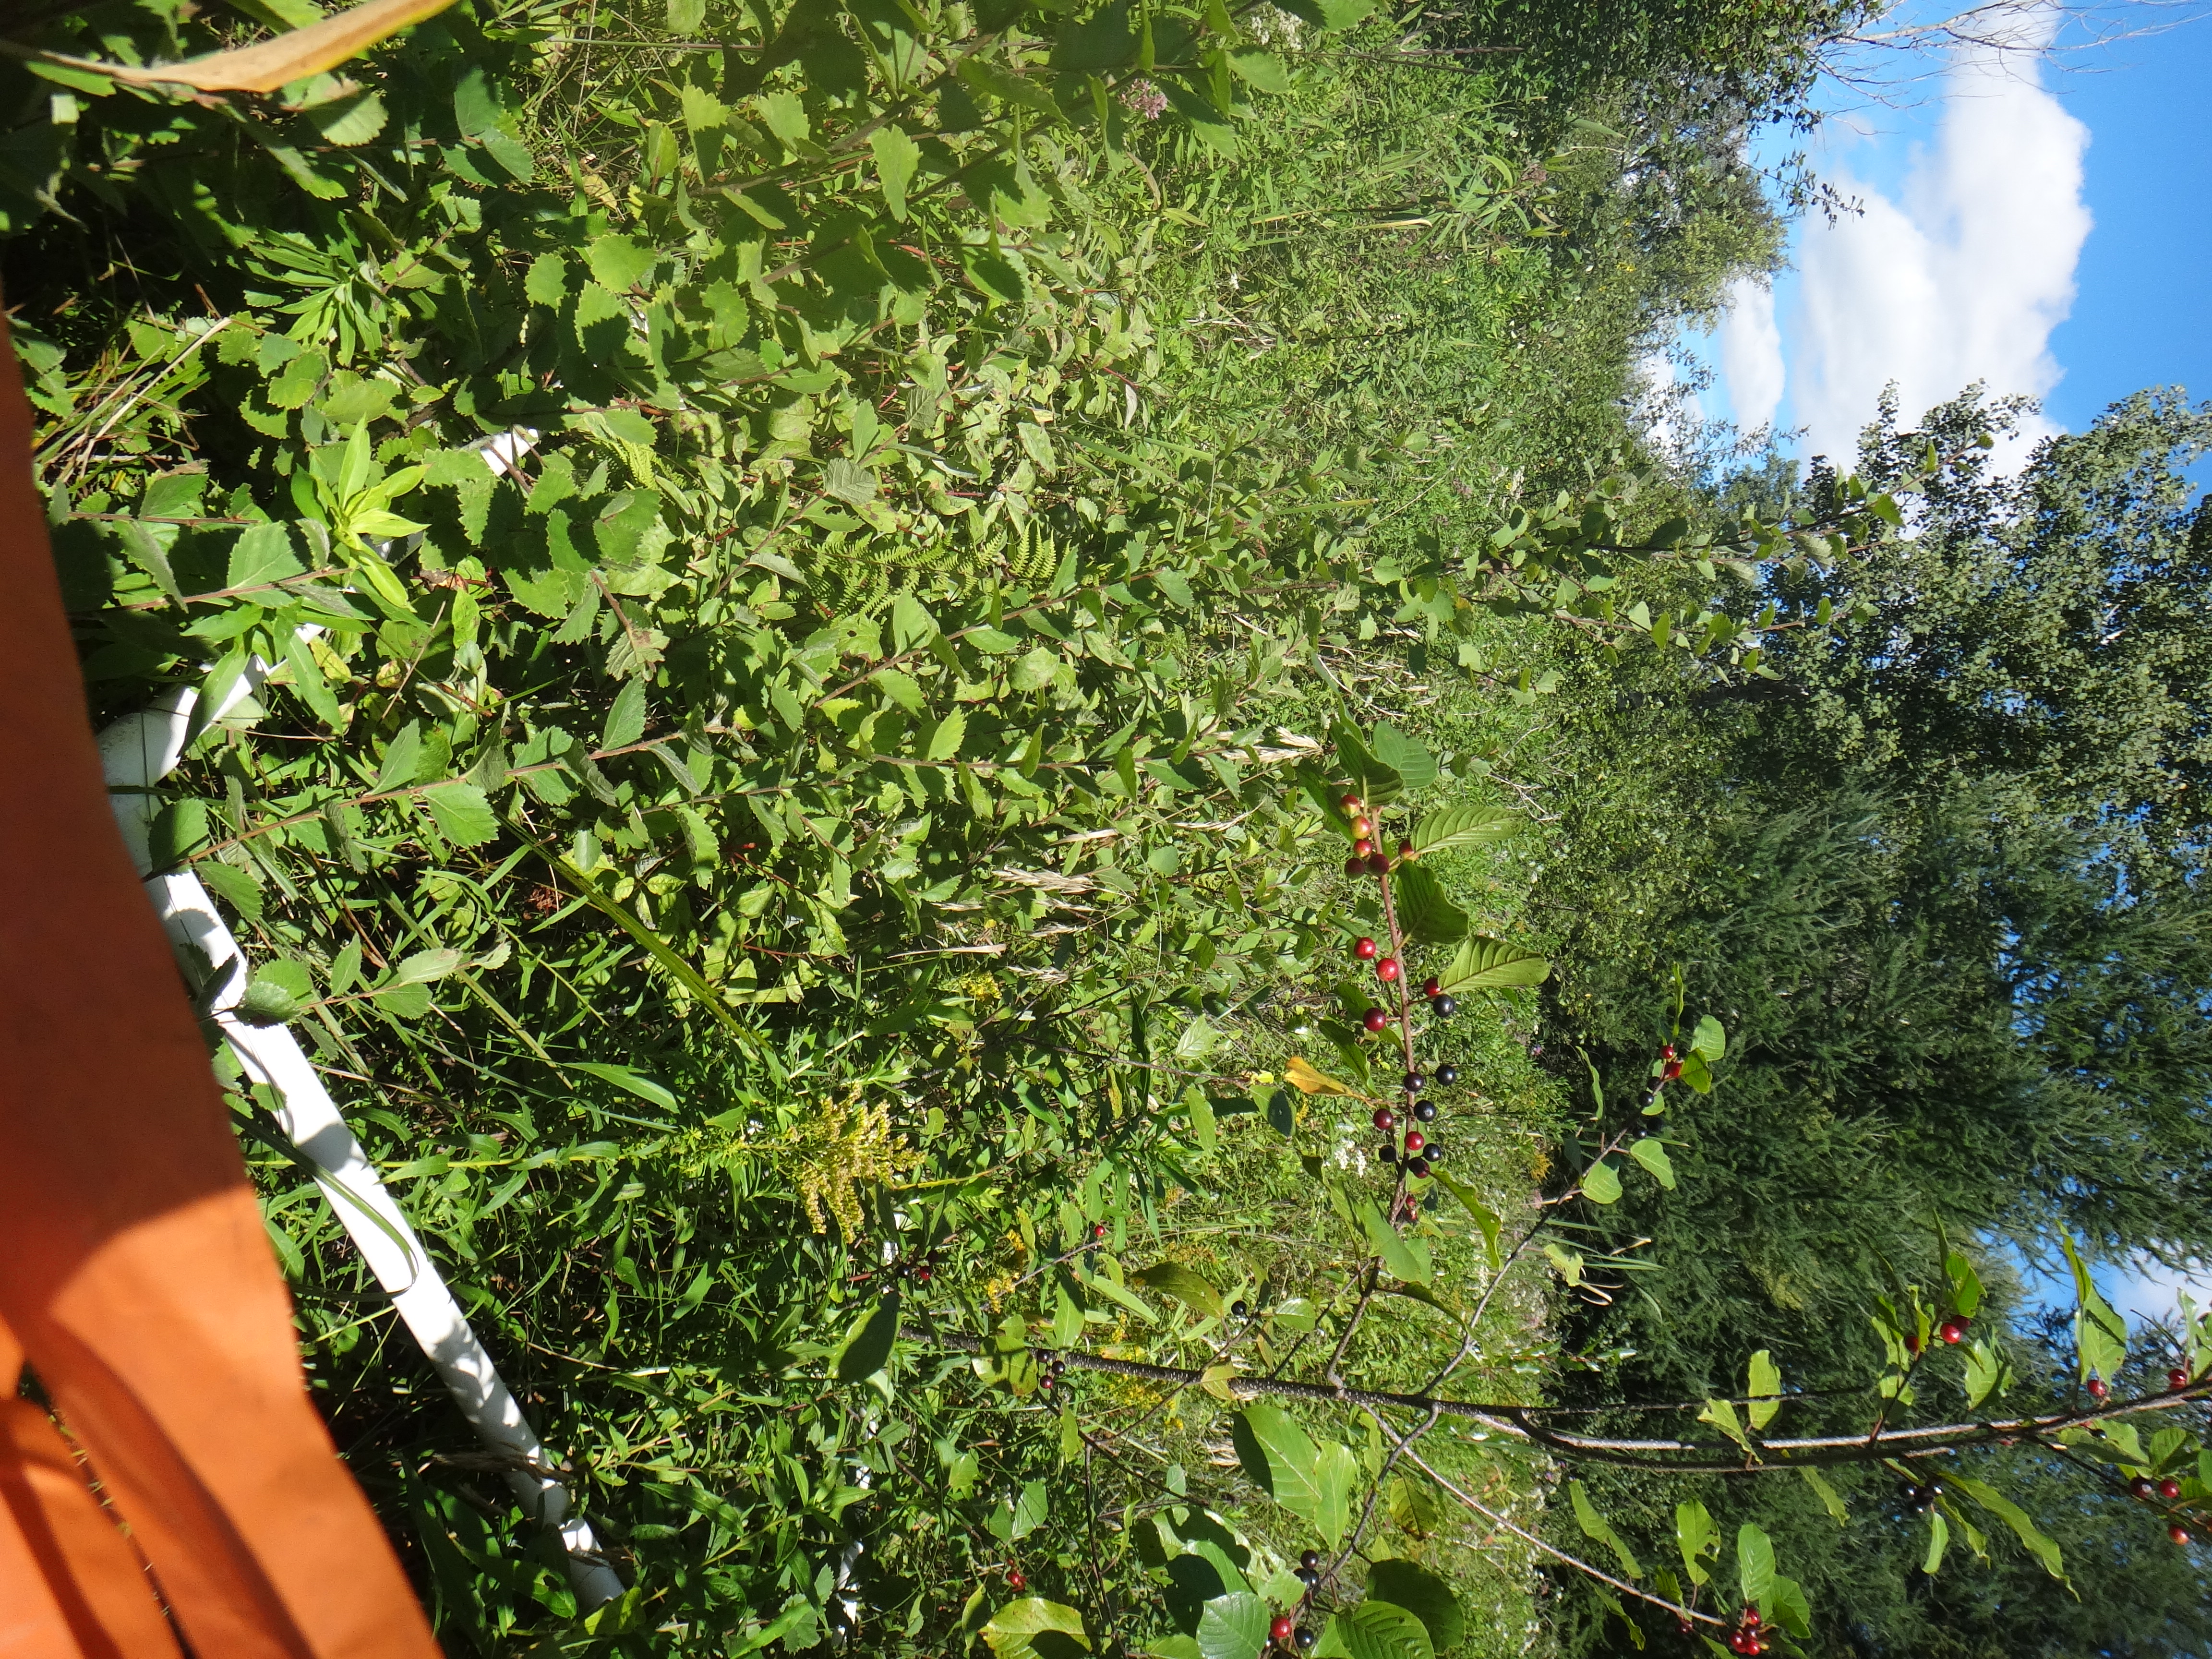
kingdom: Plantae
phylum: Tracheophyta
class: Magnoliopsida
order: Asterales
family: Asteraceae
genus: Solidago
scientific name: Solidago canadensis
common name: Canada goldenrod
